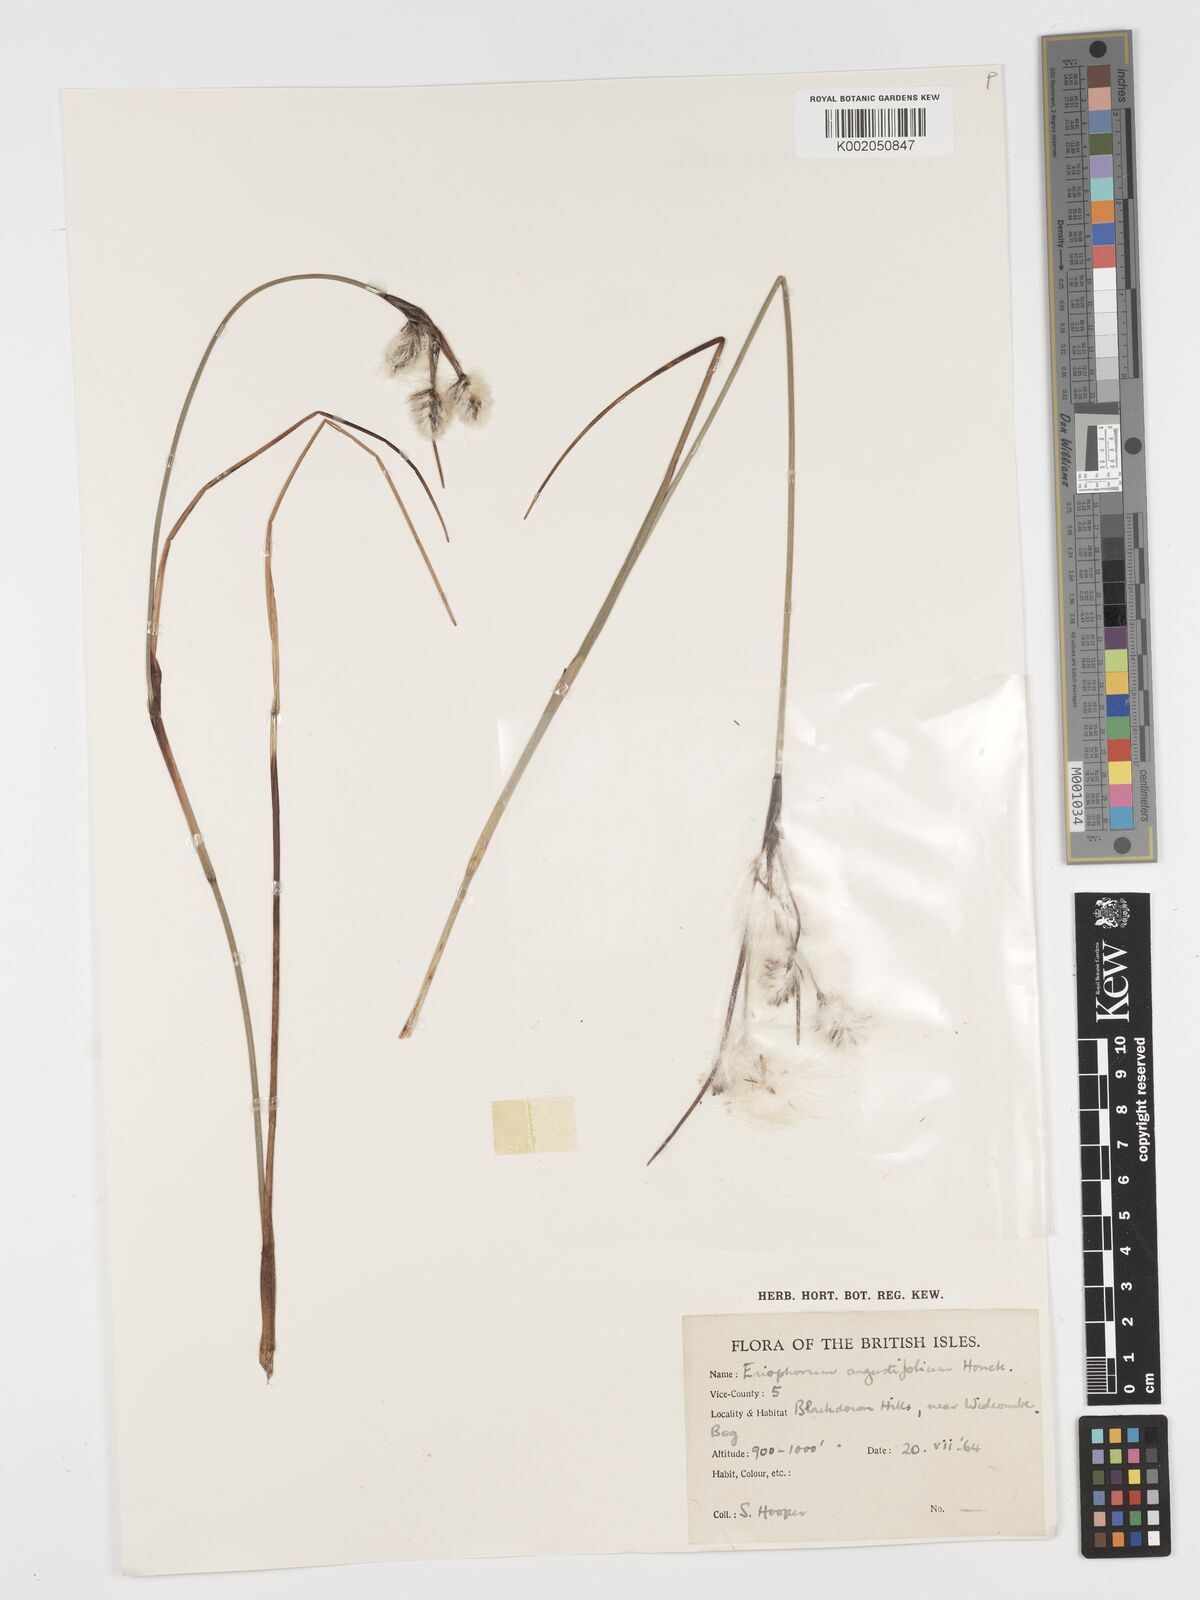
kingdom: Plantae
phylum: Tracheophyta
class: Liliopsida
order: Poales
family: Cyperaceae
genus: Eriophorum
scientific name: Eriophorum angustifolium
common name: Common cottongrass
